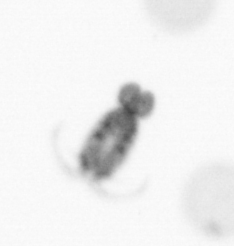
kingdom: Animalia
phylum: Arthropoda
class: Copepoda
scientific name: Copepoda
